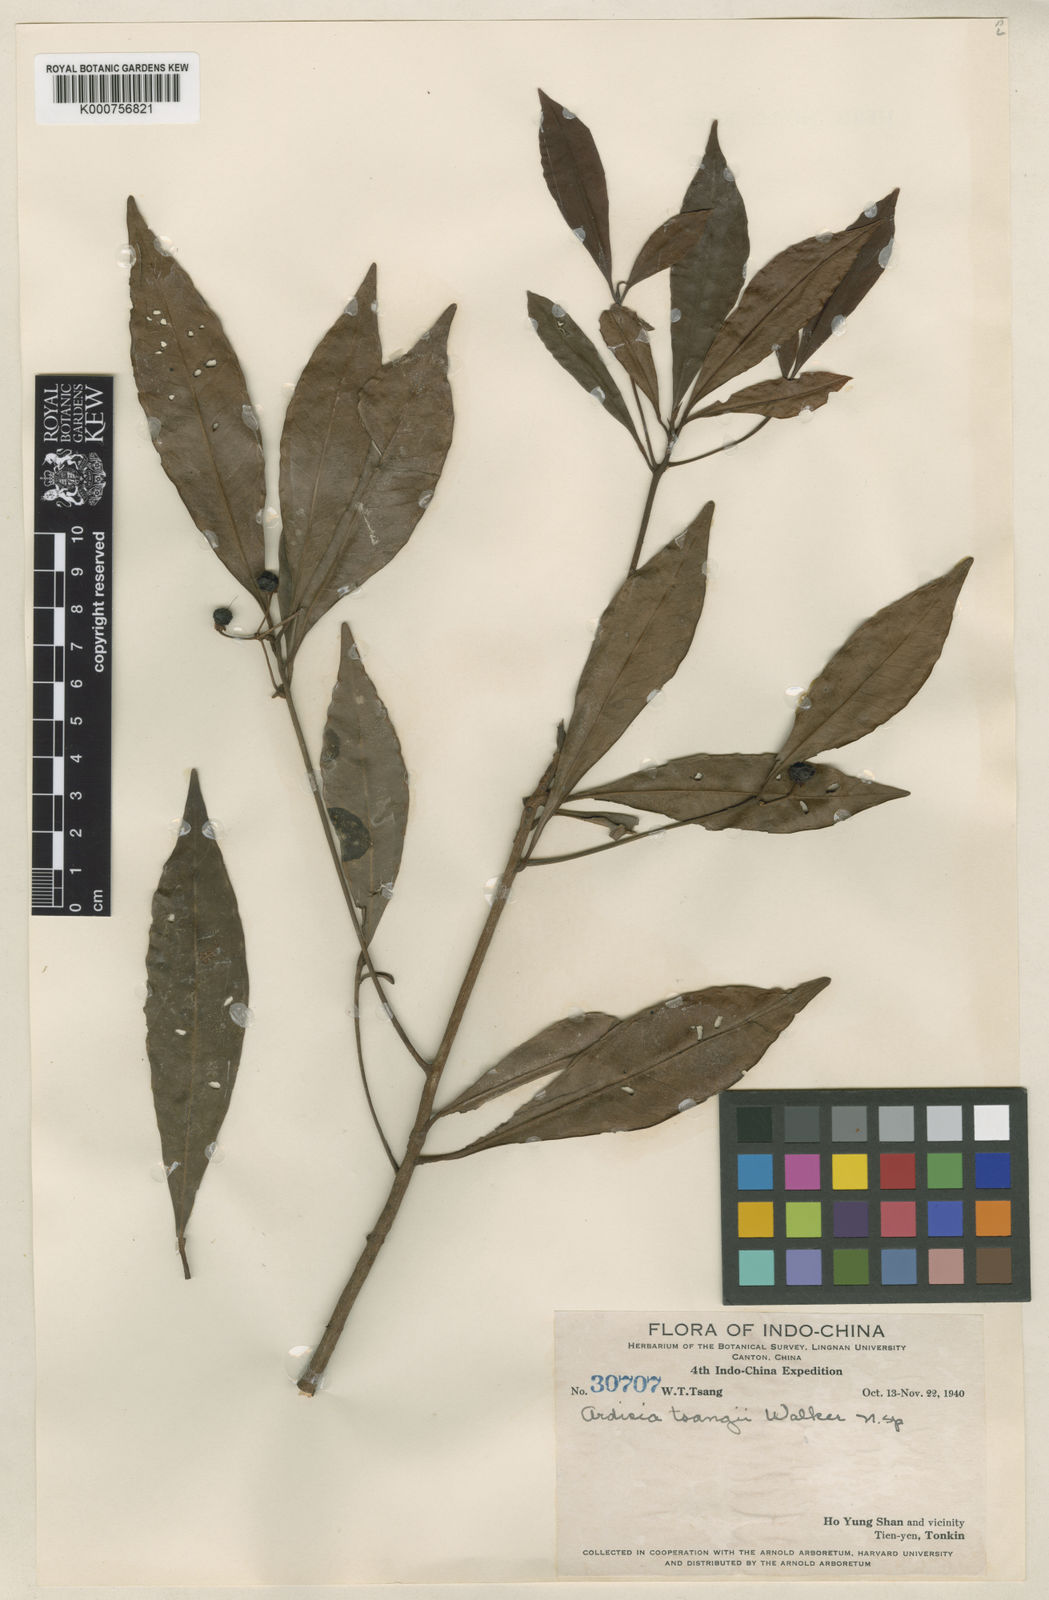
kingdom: Plantae
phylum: Tracheophyta
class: Magnoliopsida
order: Ericales
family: Primulaceae
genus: Ardisia
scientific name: Ardisia lindleyana
